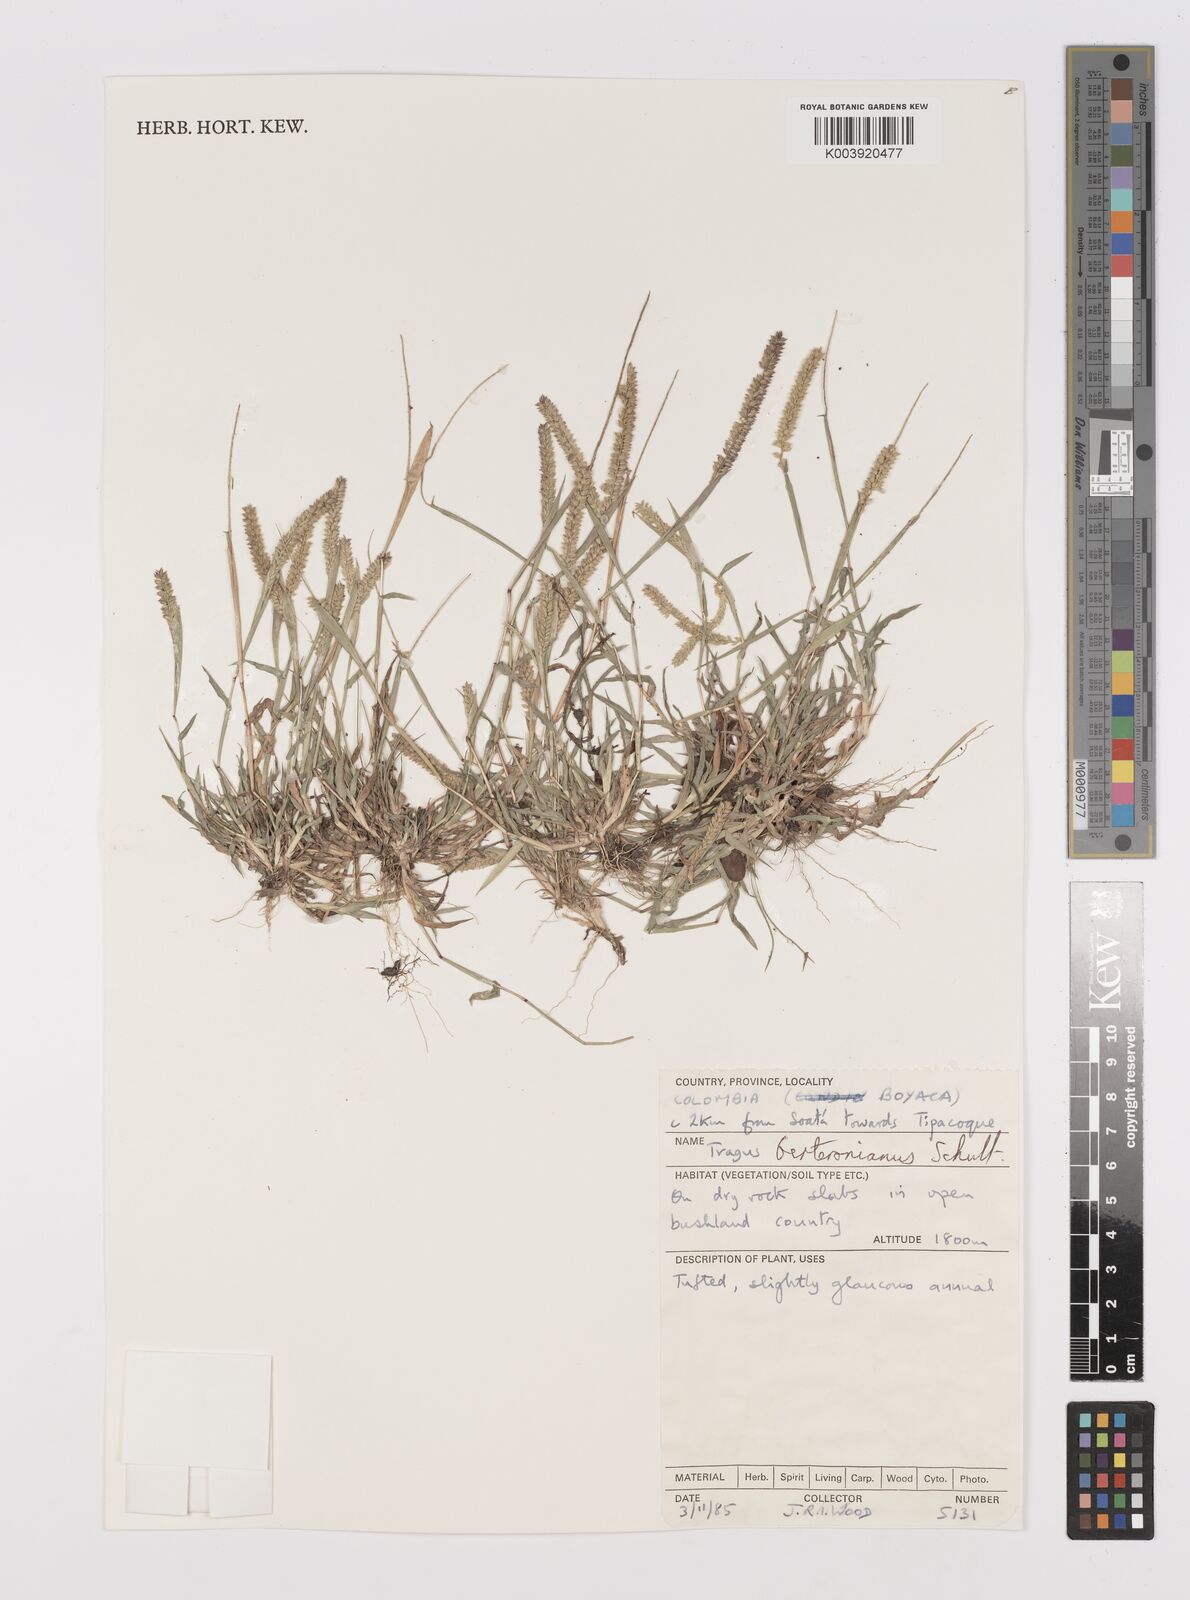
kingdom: Plantae
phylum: Tracheophyta
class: Liliopsida
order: Poales
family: Poaceae
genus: Tragus
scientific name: Tragus berteronianus
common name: African bur-grass
